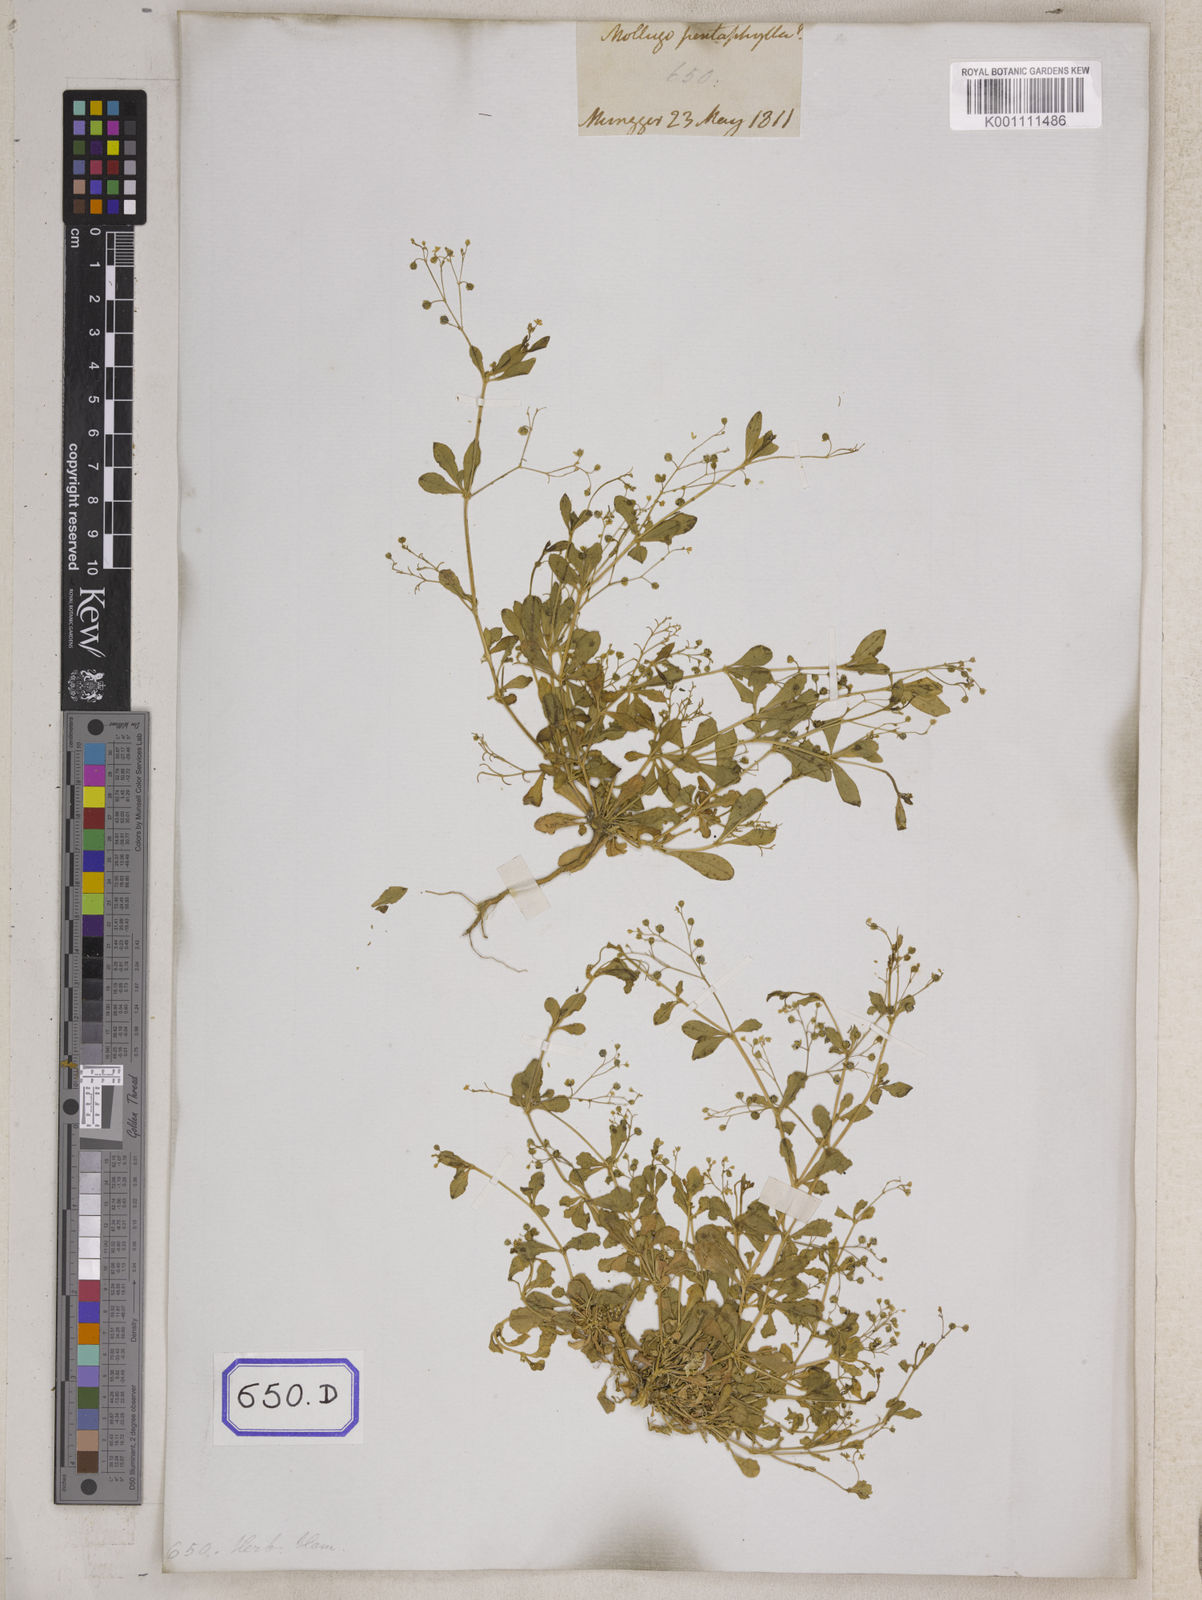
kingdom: Plantae
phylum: Tracheophyta
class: Magnoliopsida
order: Caryophyllales
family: Molluginaceae
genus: Trigastrotheca
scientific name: Trigastrotheca pentaphylla
